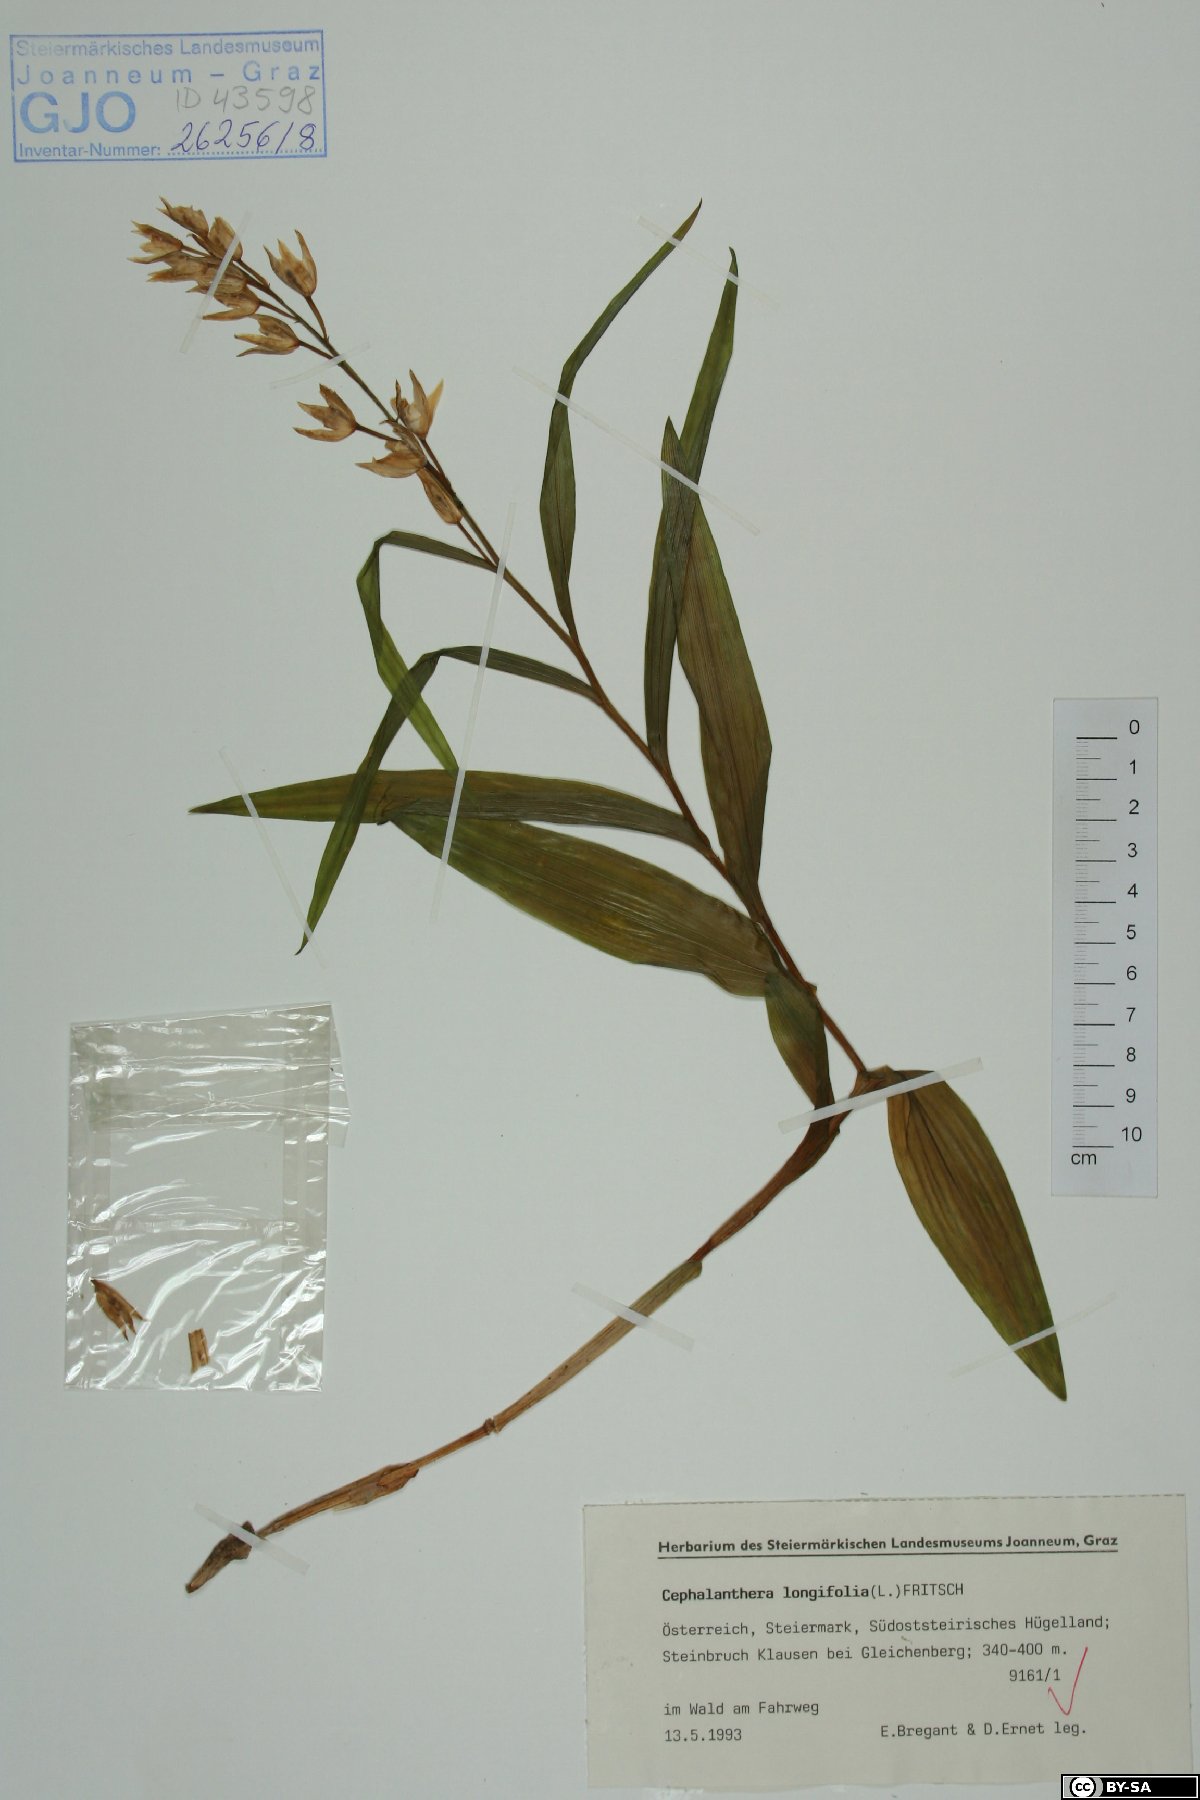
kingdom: Plantae
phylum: Tracheophyta
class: Liliopsida
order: Asparagales
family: Orchidaceae
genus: Cephalanthera
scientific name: Cephalanthera longifolia
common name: Narrow-leaved helleborine
